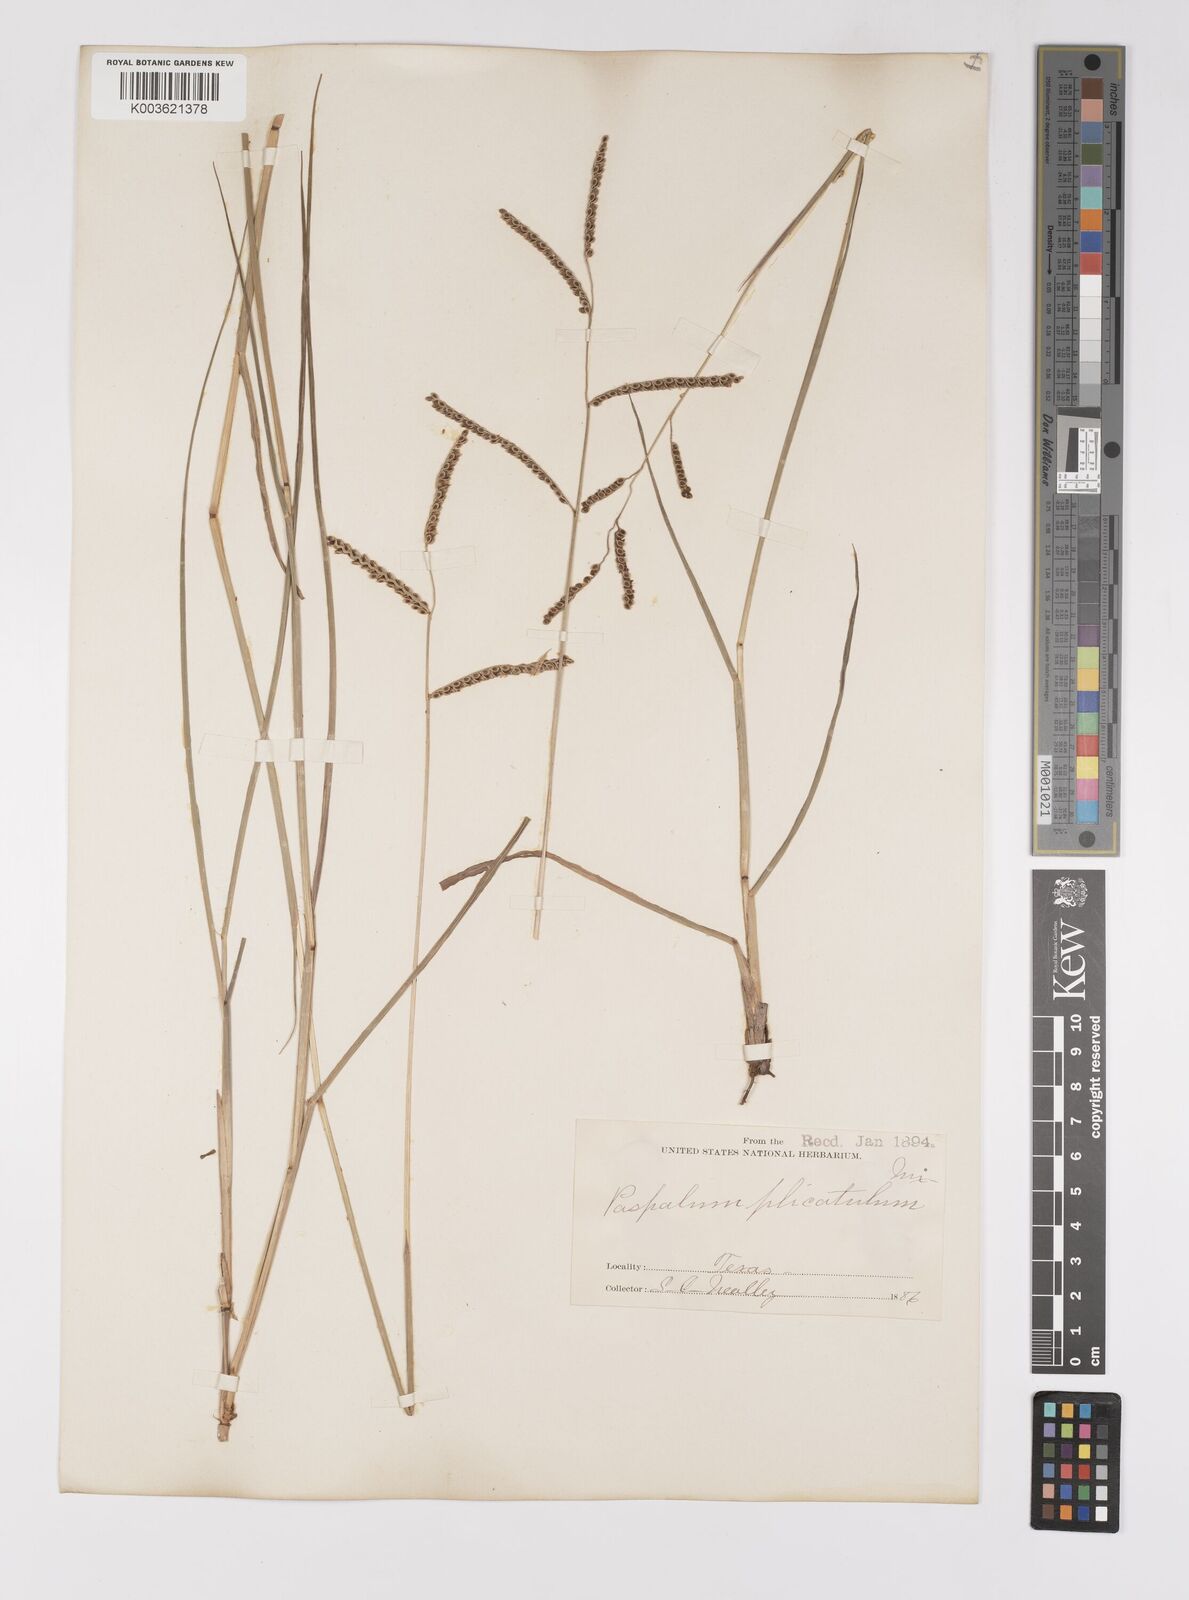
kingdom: Plantae
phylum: Tracheophyta
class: Liliopsida
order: Poales
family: Poaceae
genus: Paspalum
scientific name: Paspalum plicatulum
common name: Top paspalum
